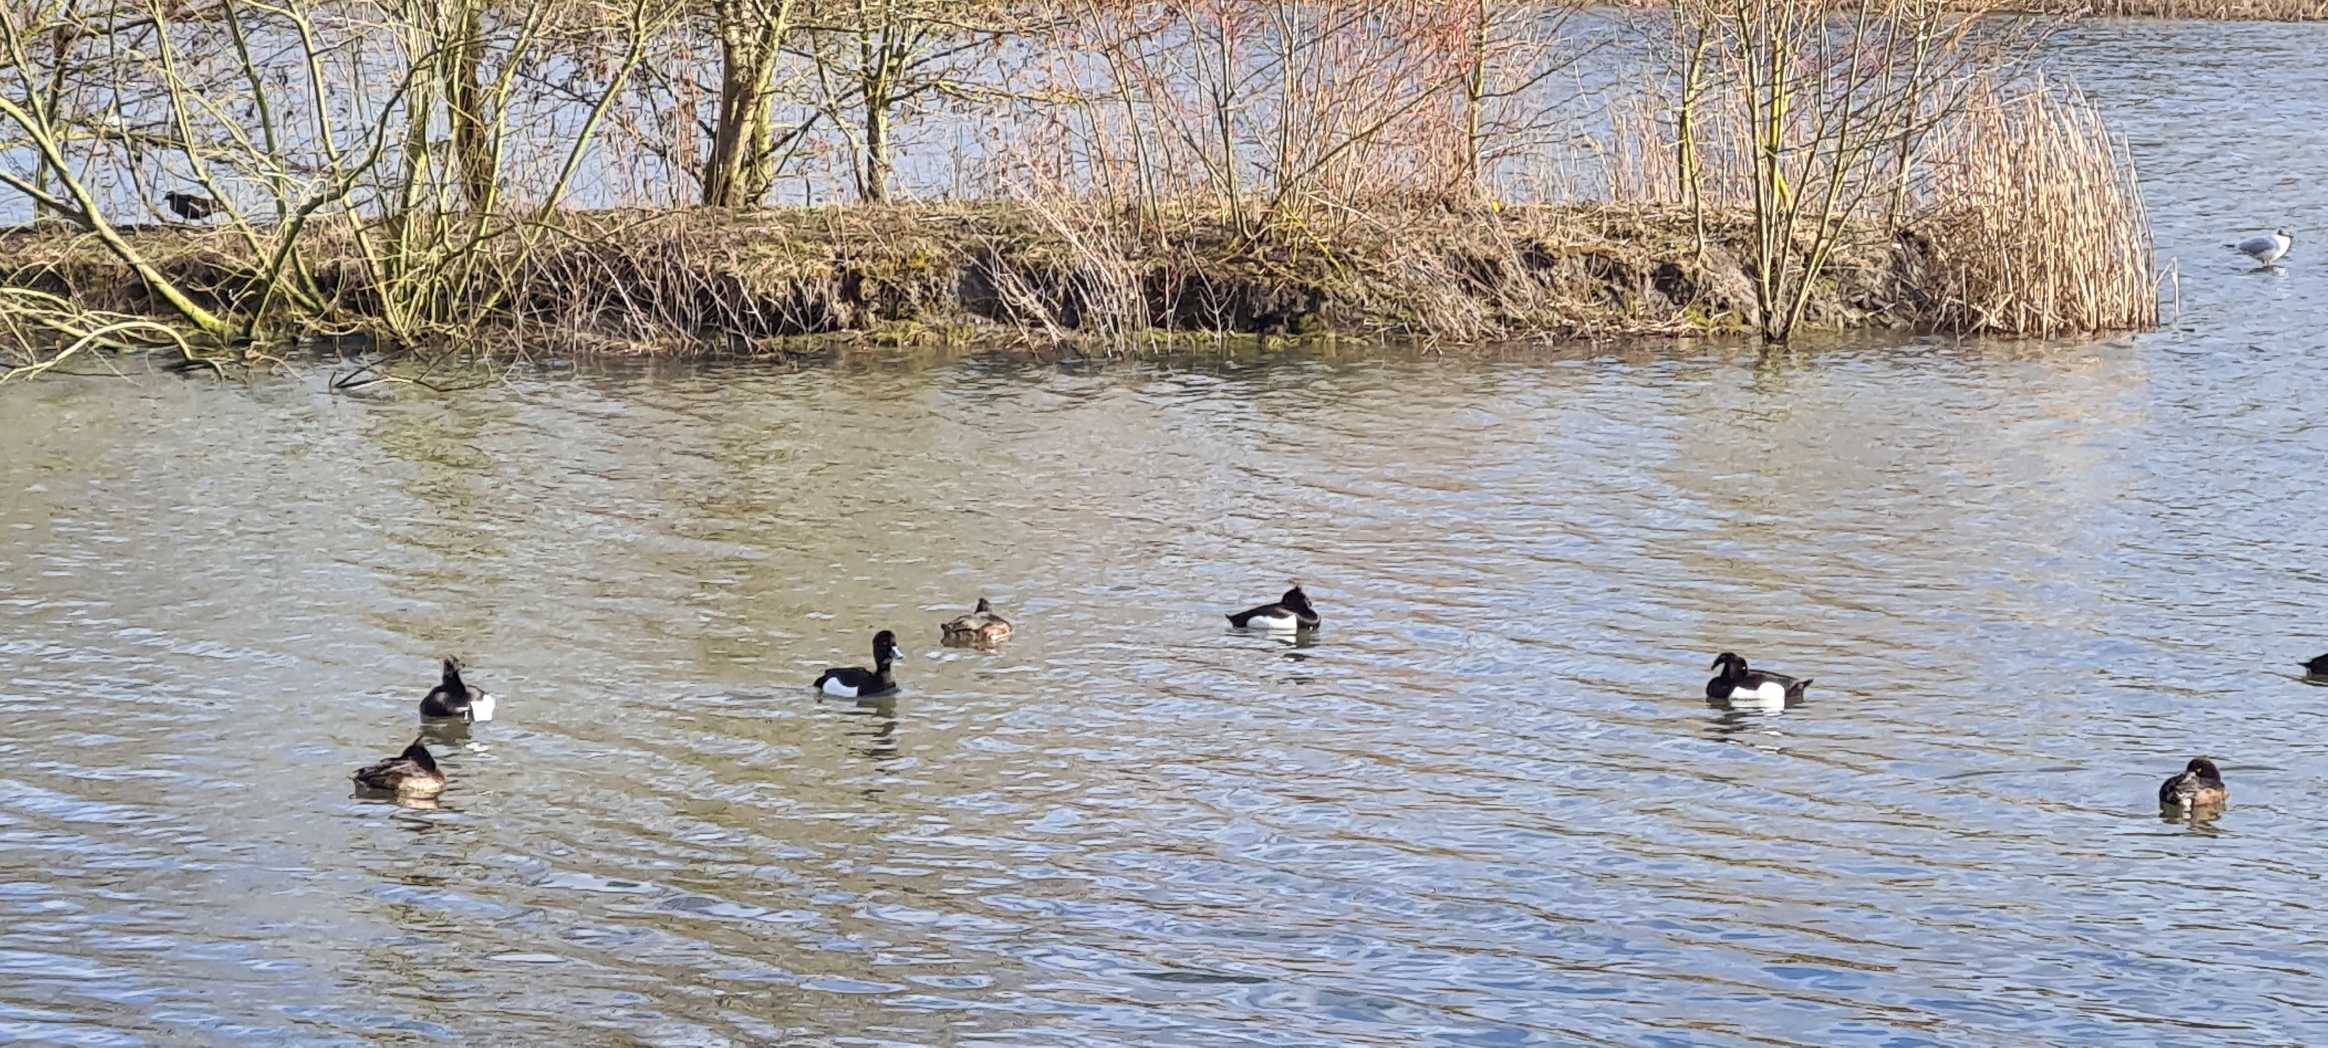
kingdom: Animalia
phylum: Chordata
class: Aves
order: Anseriformes
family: Anatidae
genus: Aythya
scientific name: Aythya fuligula
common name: Troldand
